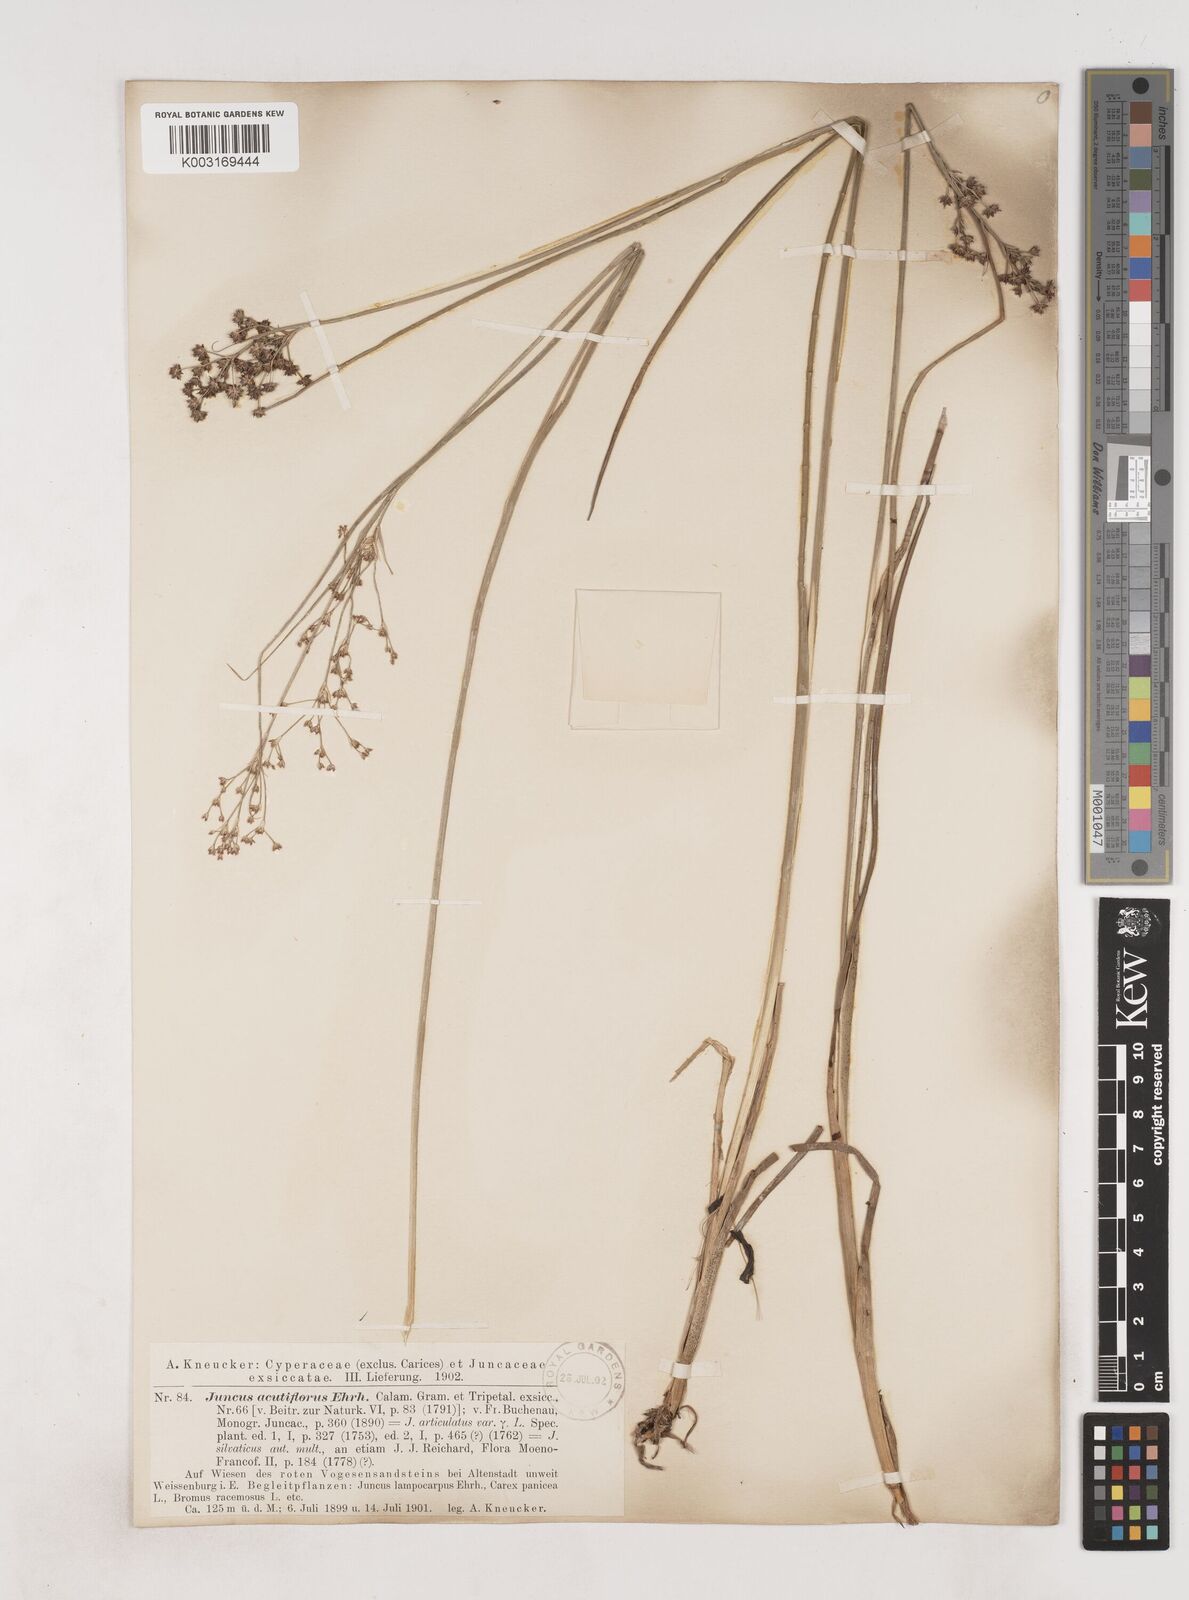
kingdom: Plantae
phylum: Tracheophyta
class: Liliopsida
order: Poales
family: Juncaceae
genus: Juncus
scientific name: Juncus acutiflorus
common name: Sharp-flowered rush
